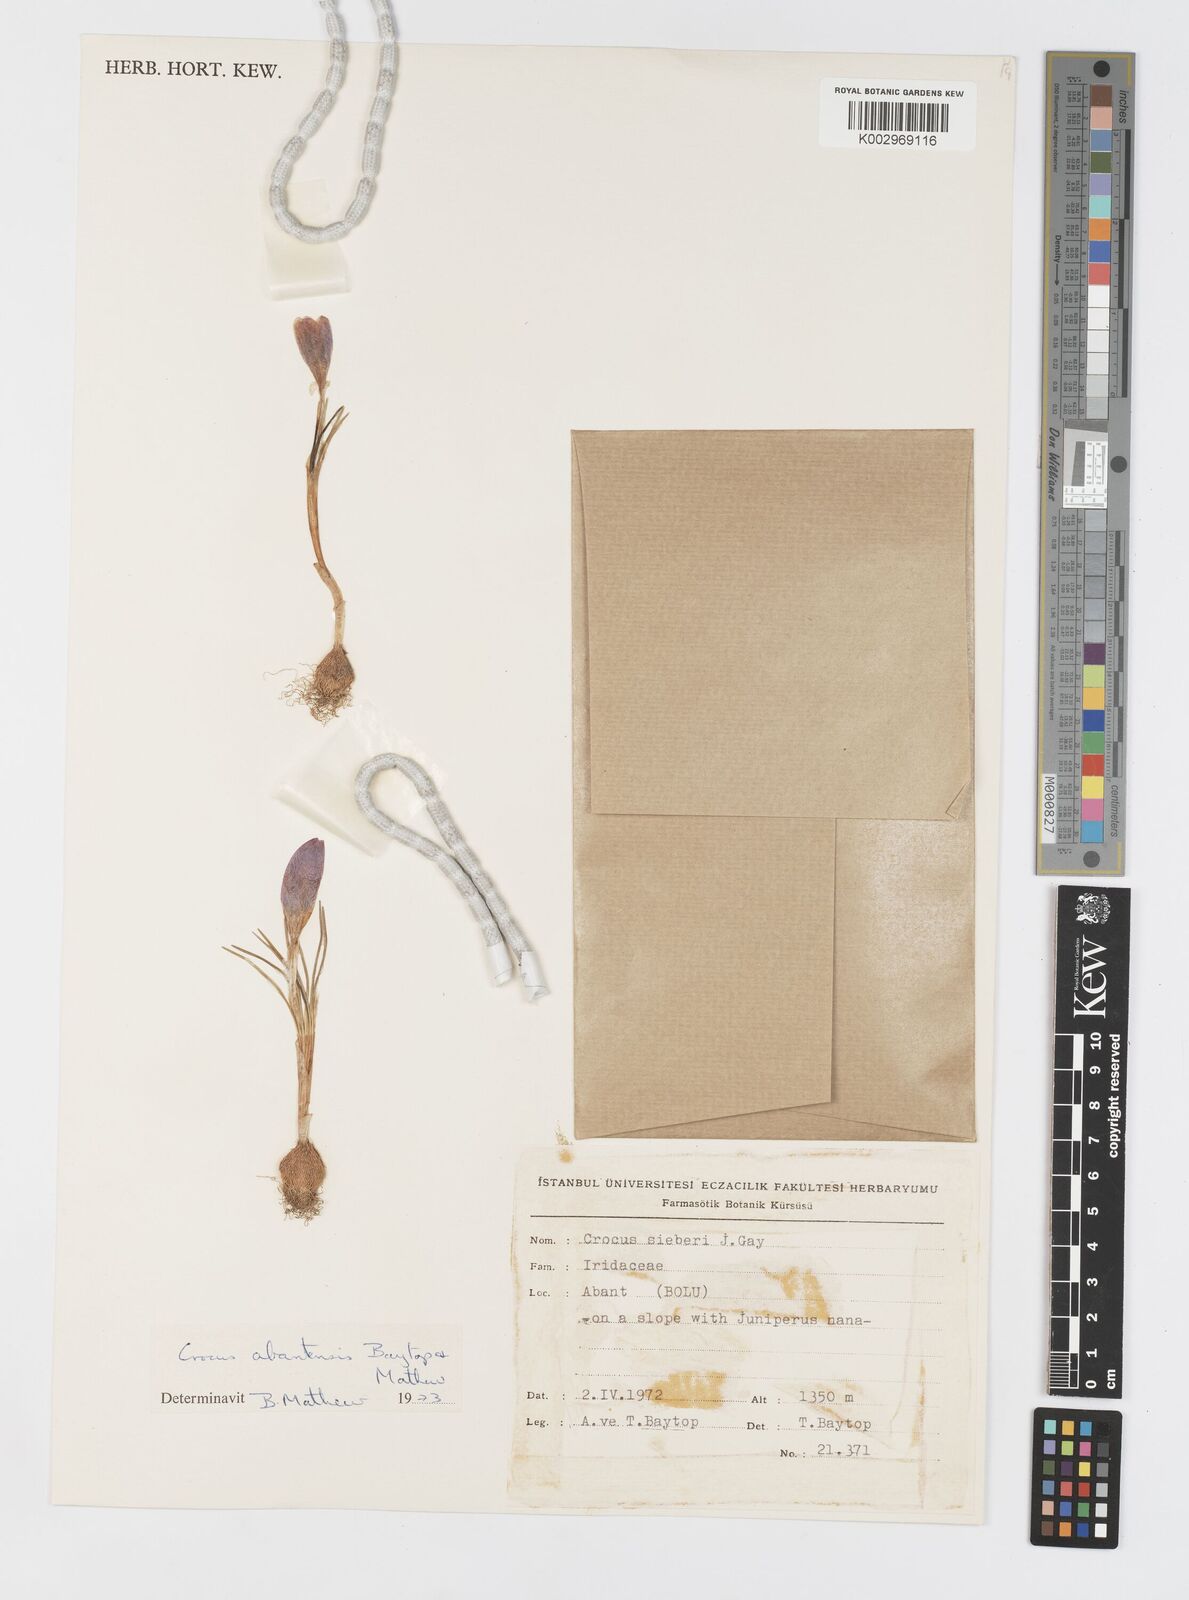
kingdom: Plantae
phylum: Tracheophyta
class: Liliopsida
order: Asparagales
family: Iridaceae
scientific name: Iridaceae
